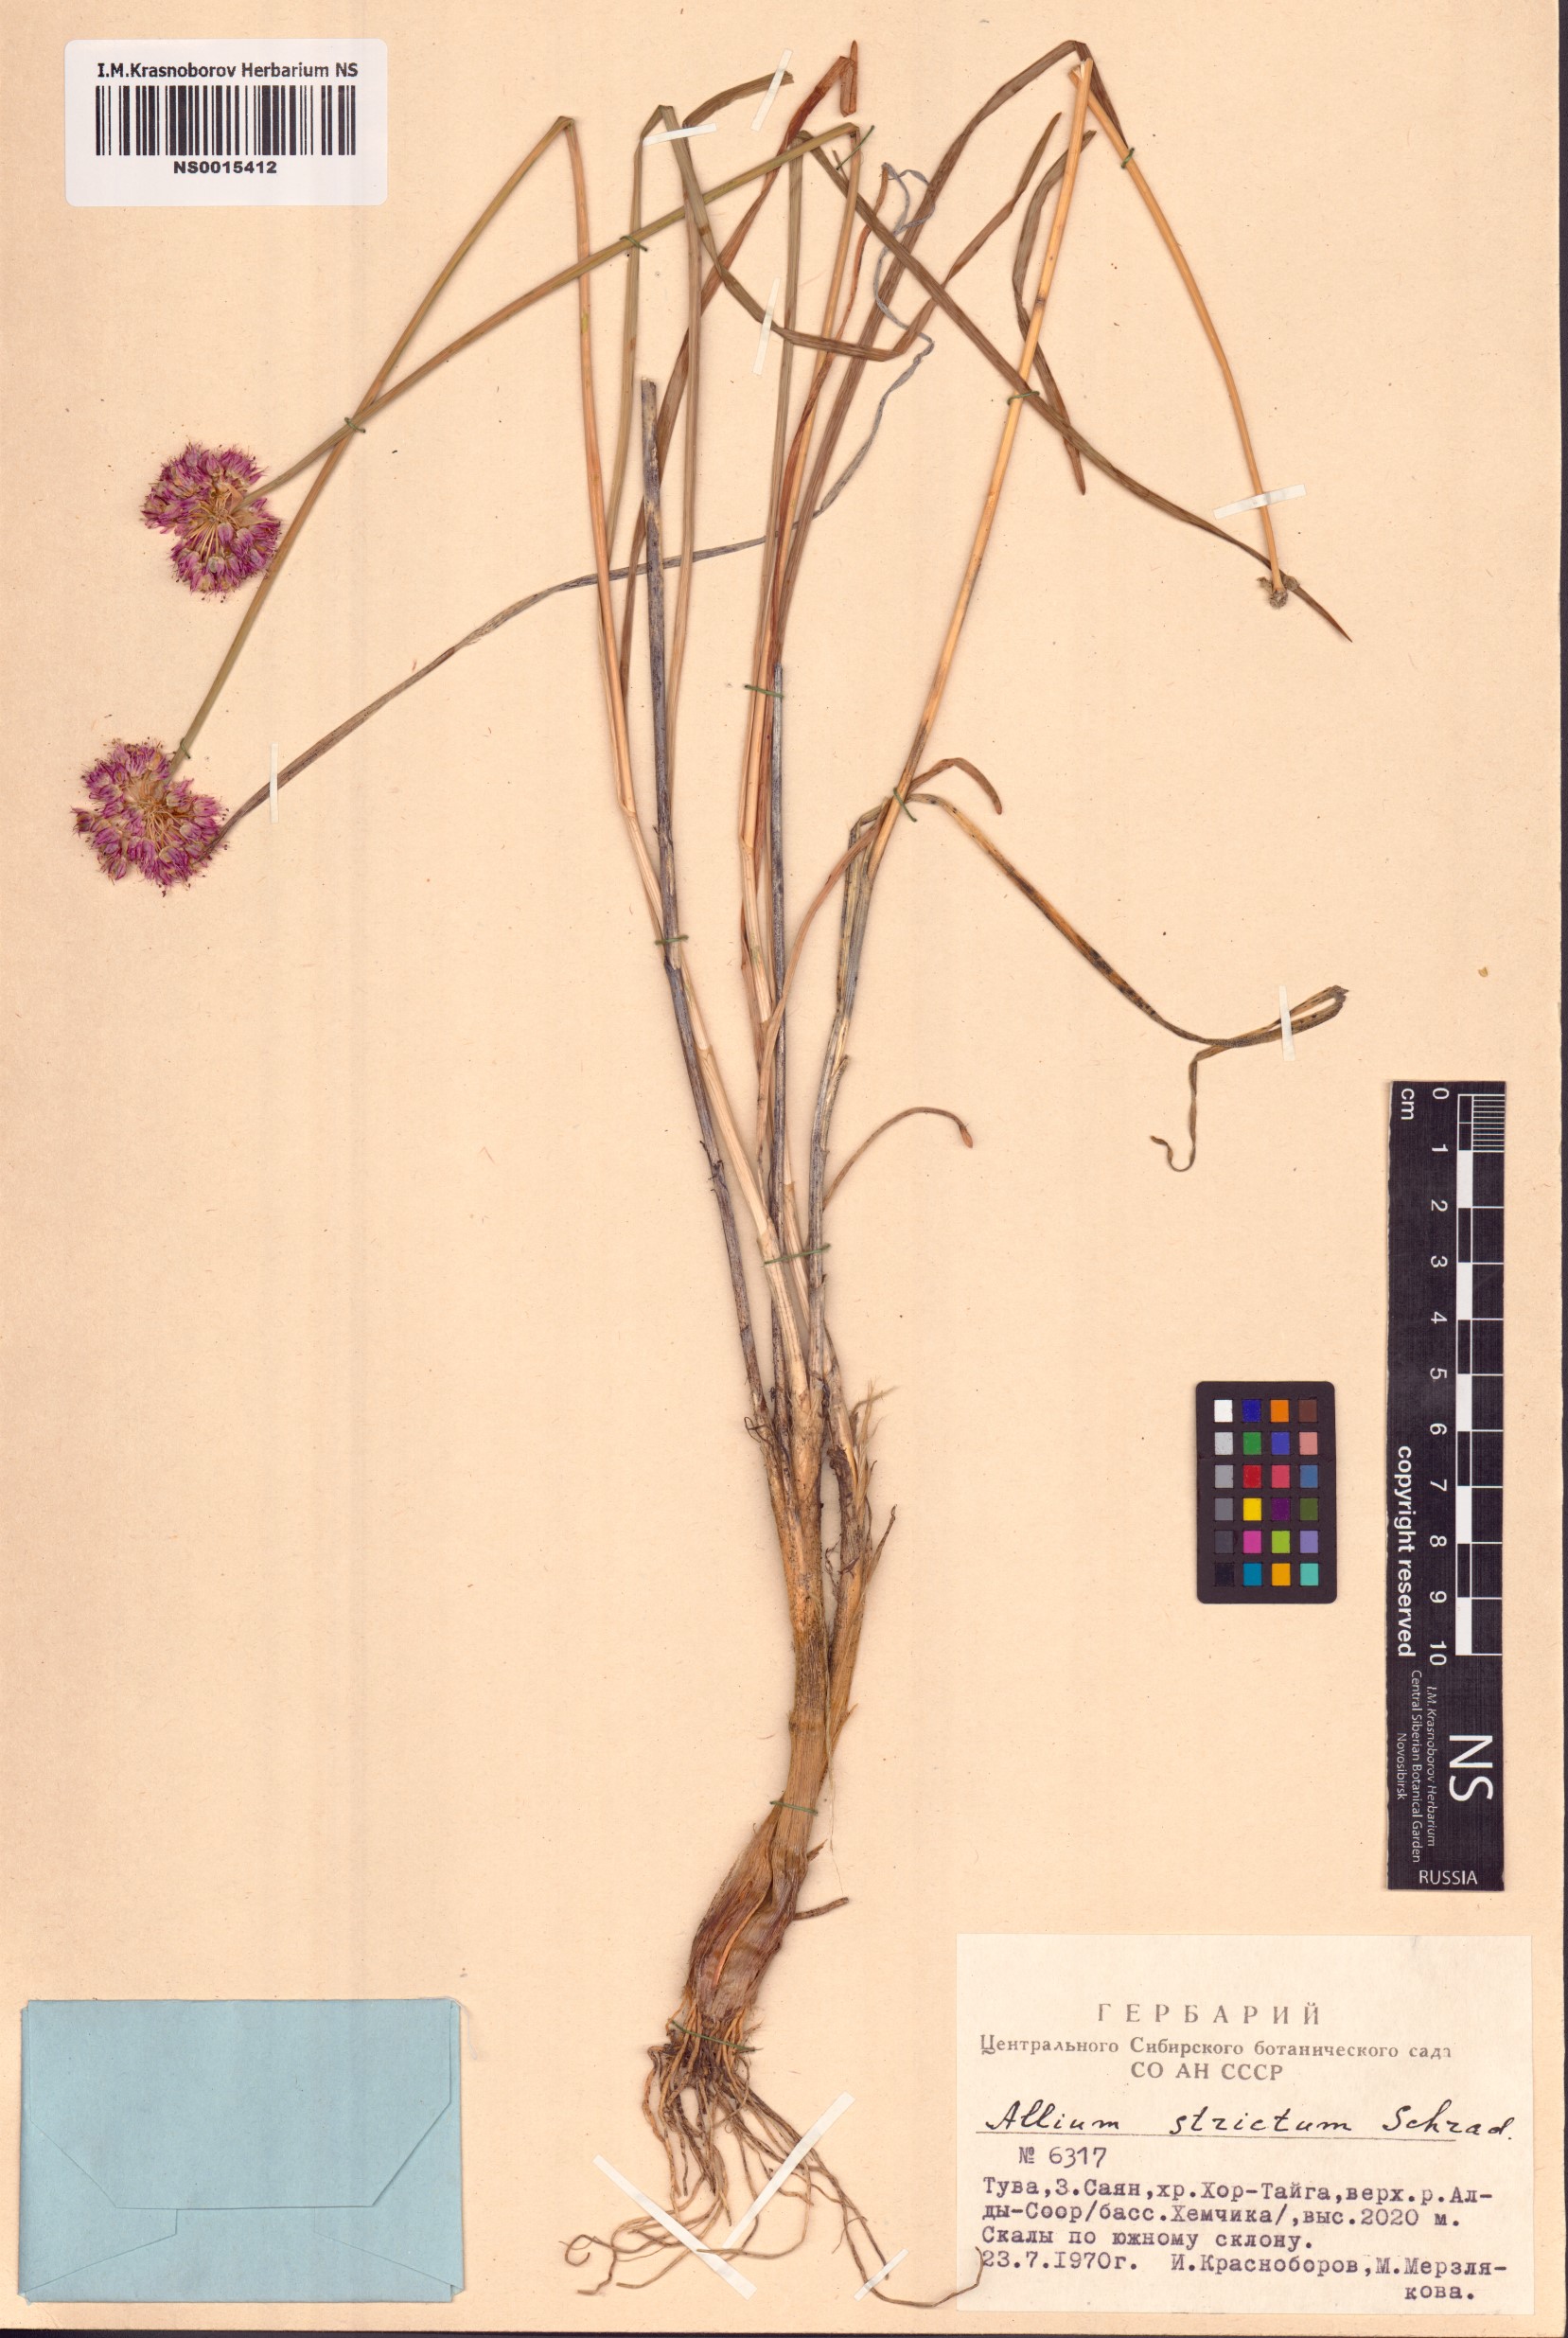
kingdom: Plantae
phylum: Tracheophyta
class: Liliopsida
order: Asparagales
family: Amaryllidaceae
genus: Allium
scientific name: Allium strictum
